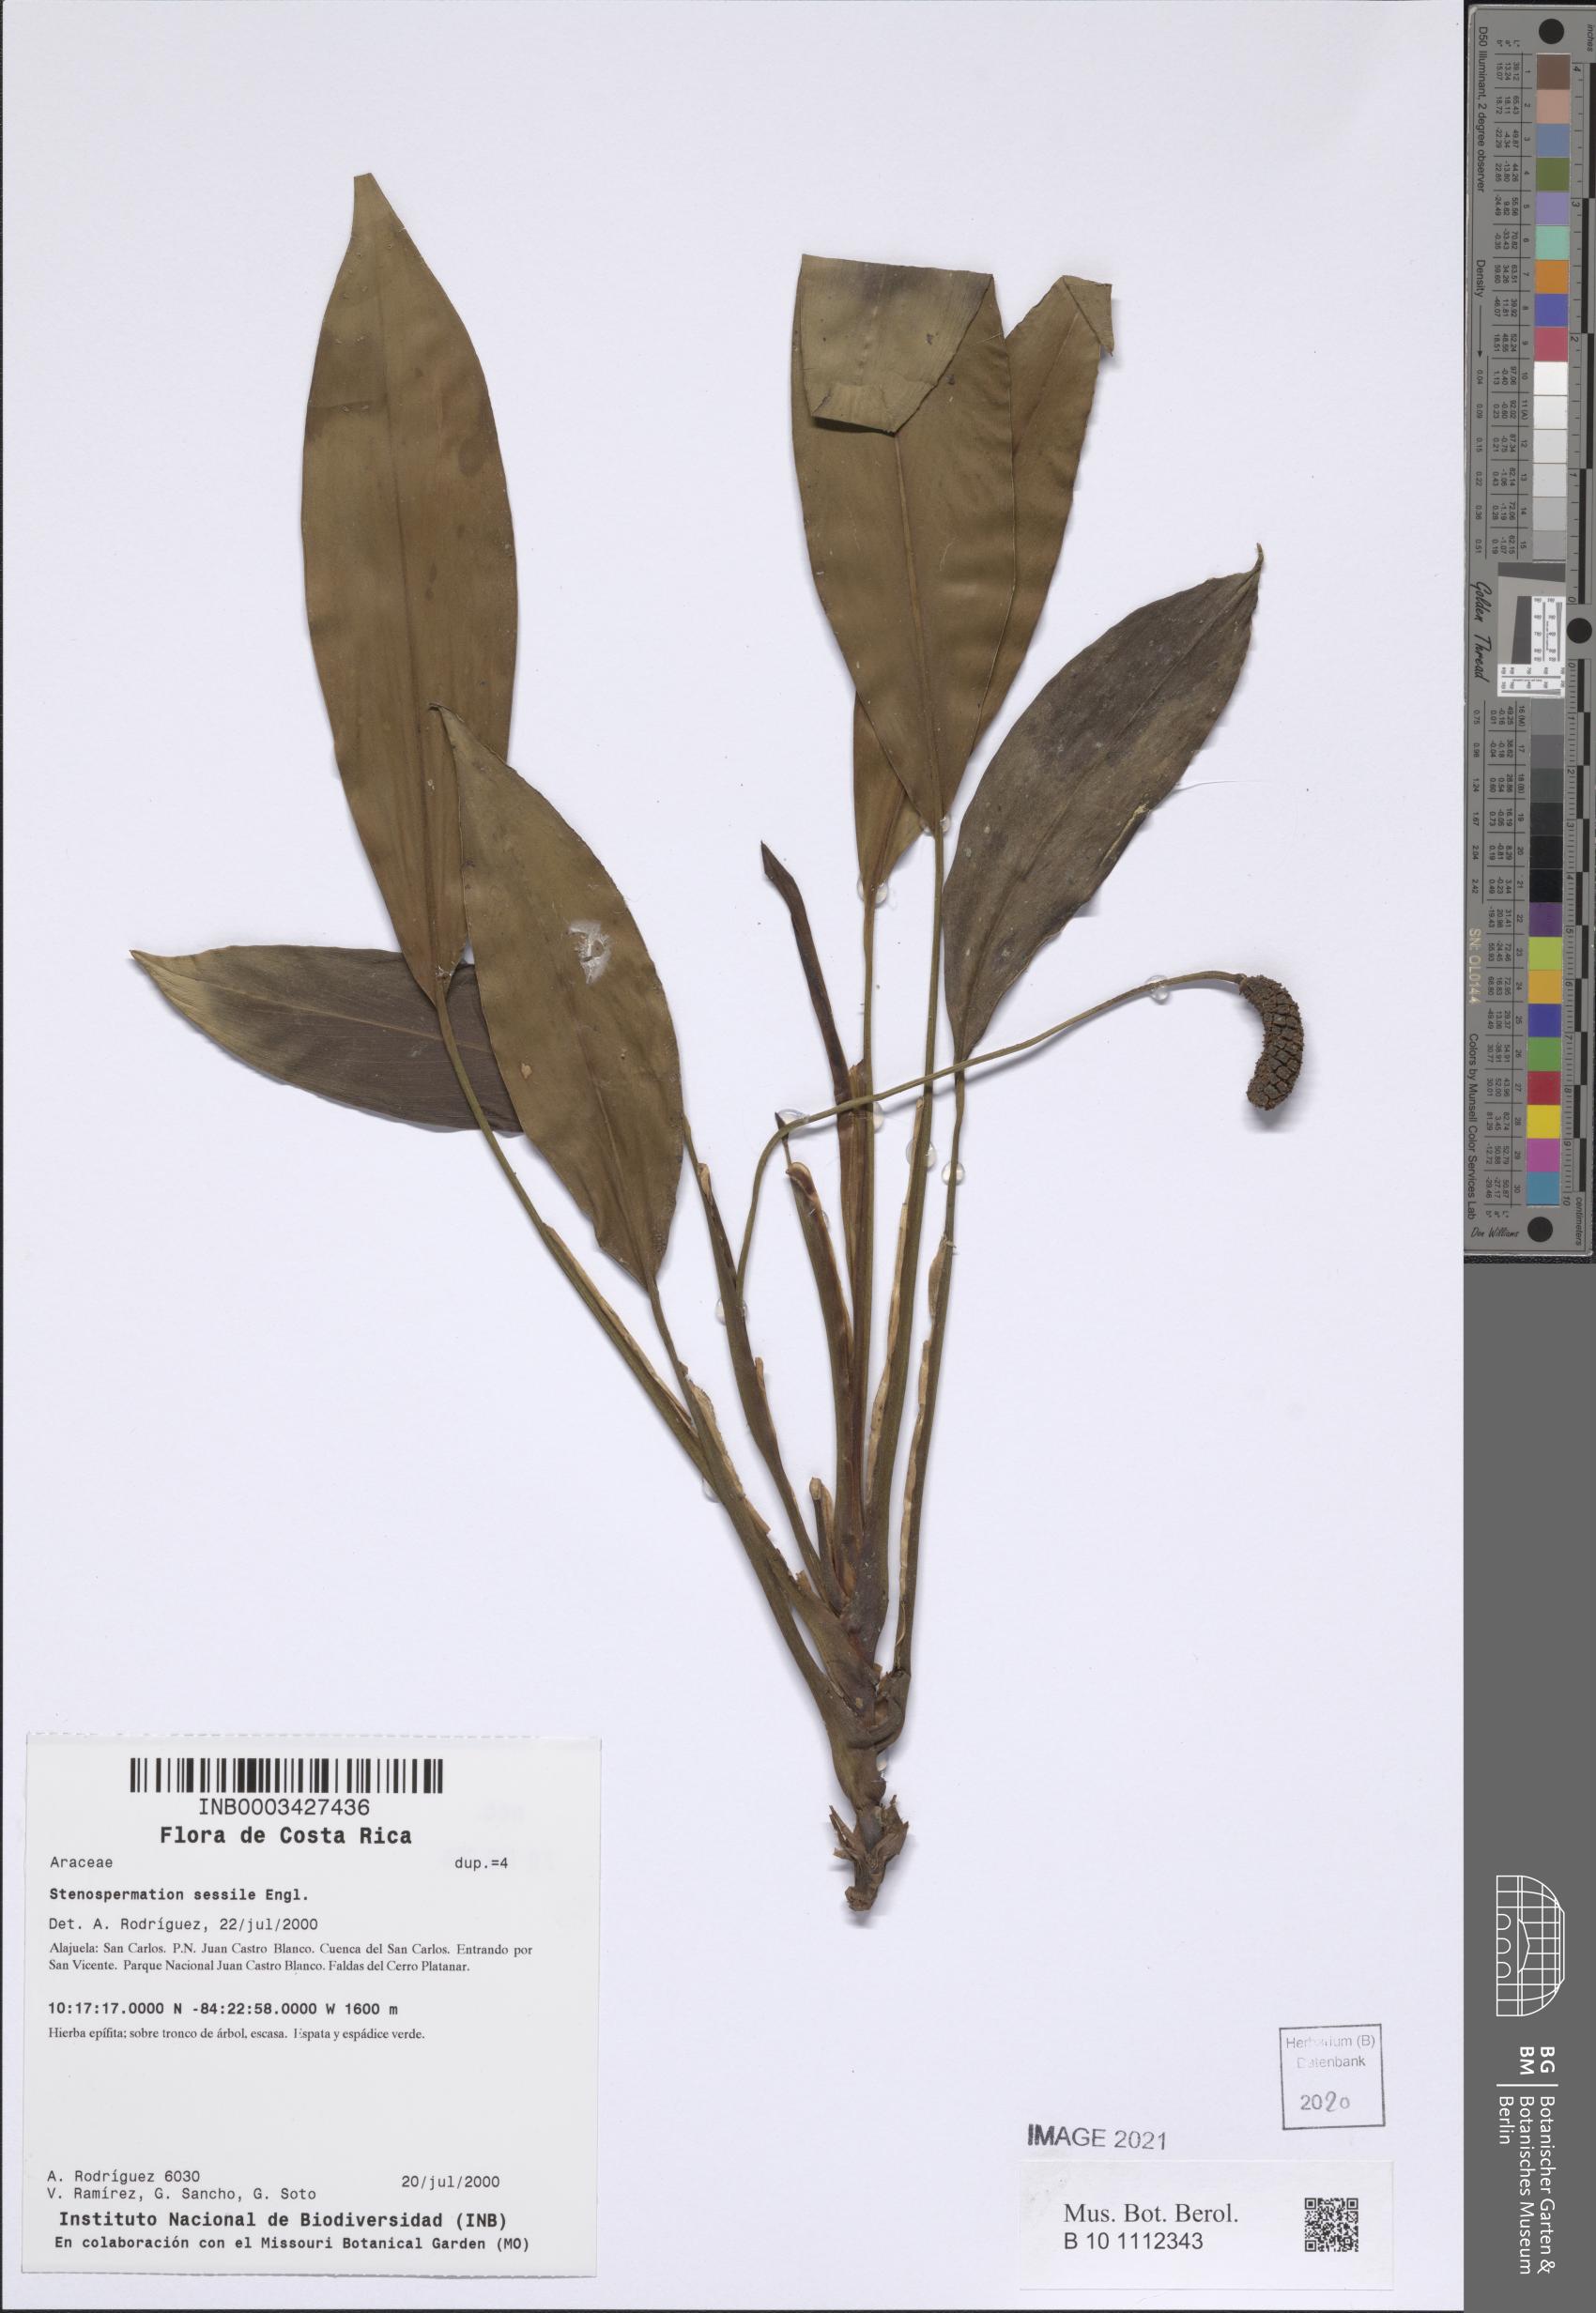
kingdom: Plantae
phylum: Tracheophyta
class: Liliopsida
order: Alismatales
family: Araceae
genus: Stenospermation
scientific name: Stenospermation sessile
